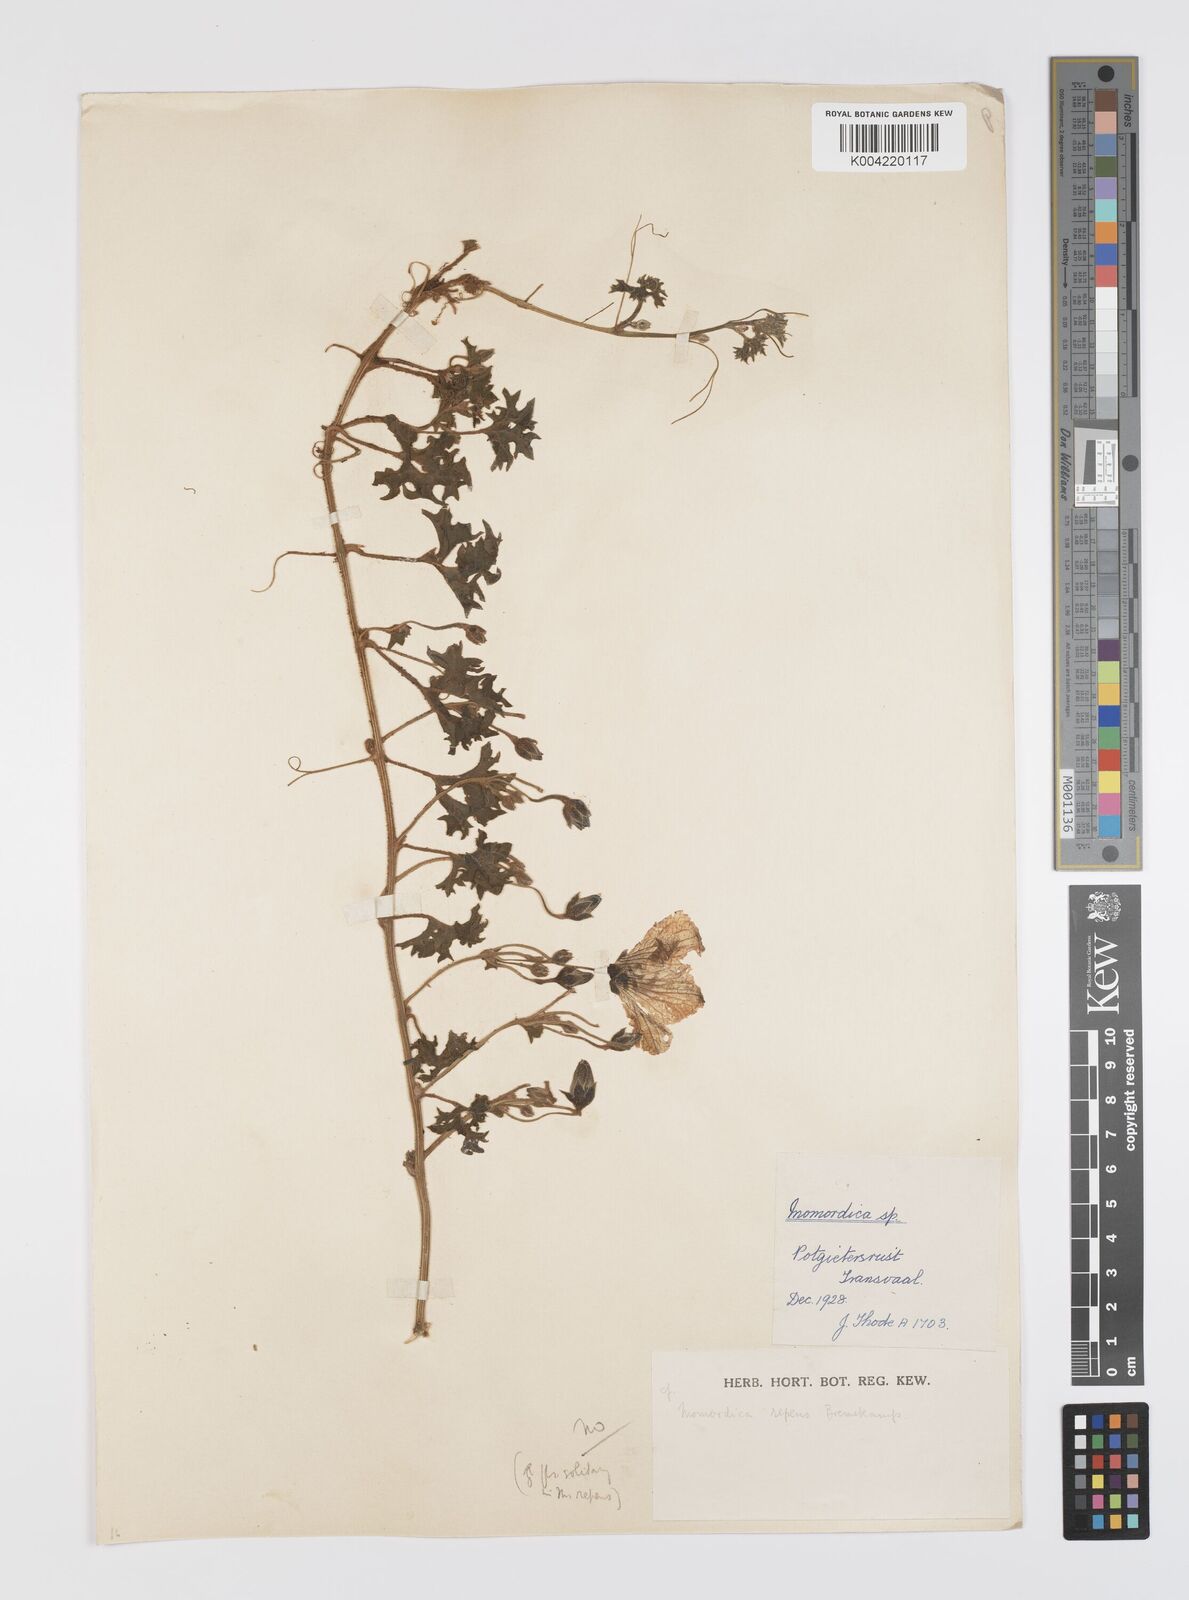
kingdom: Plantae
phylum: Tracheophyta
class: Magnoliopsida
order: Cucurbitales
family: Cucurbitaceae
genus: Momordica
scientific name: Momordica repens
